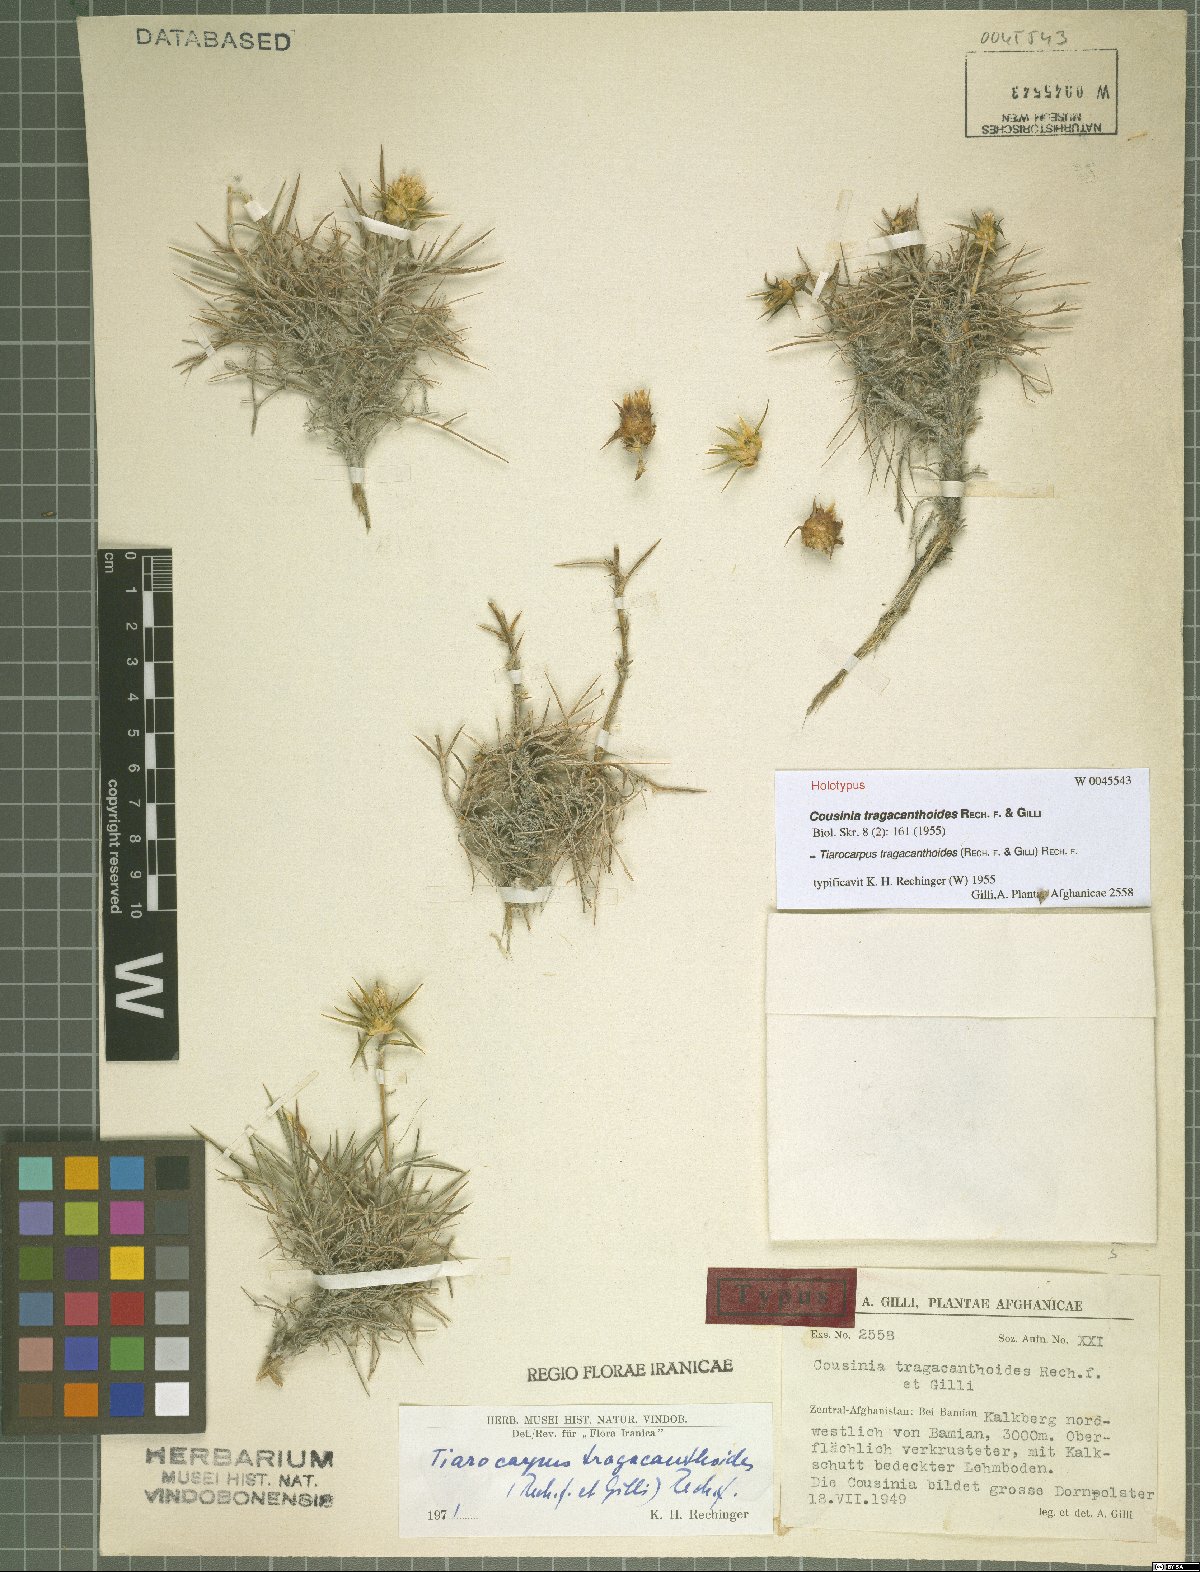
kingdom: Plantae
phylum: Tracheophyta
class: Magnoliopsida
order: Asterales
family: Asteraceae
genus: Cousinia
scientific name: Cousinia tragacanthoides
